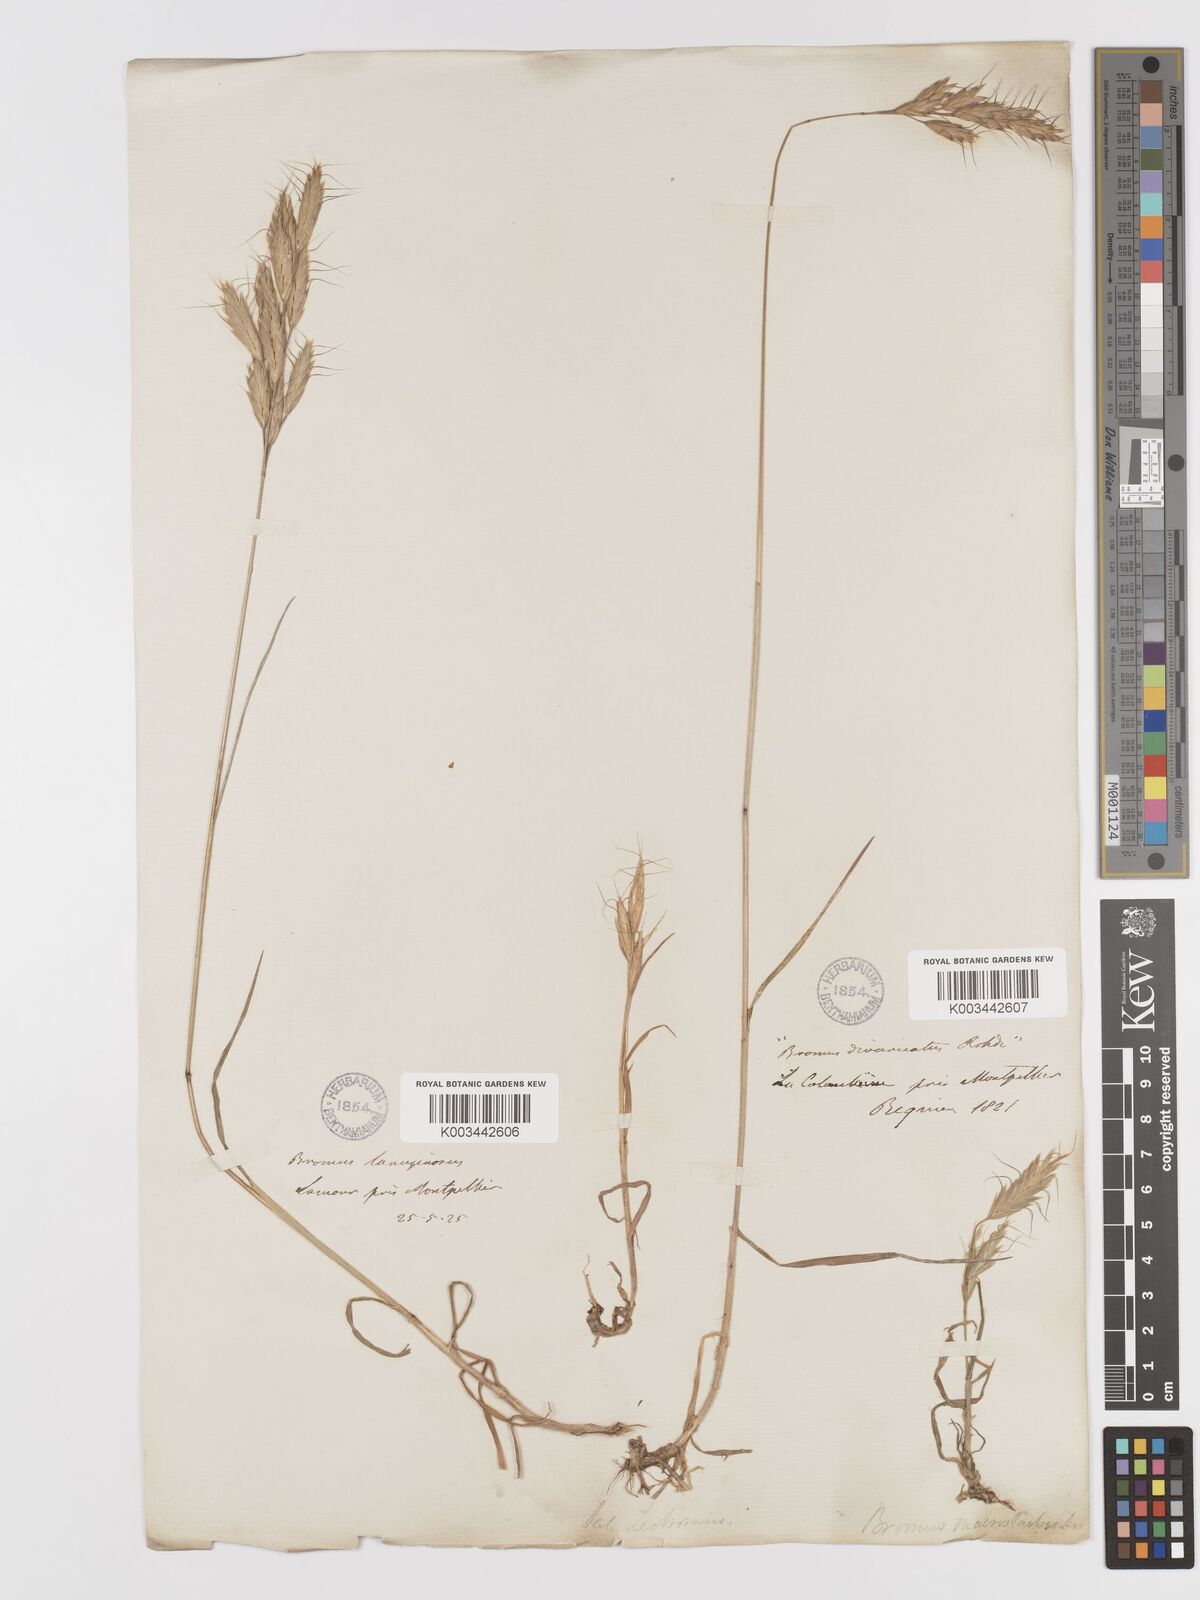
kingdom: Plantae
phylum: Tracheophyta
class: Liliopsida
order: Poales
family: Poaceae
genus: Bromus
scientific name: Bromus lanceolatus
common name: Mediterranean brome
